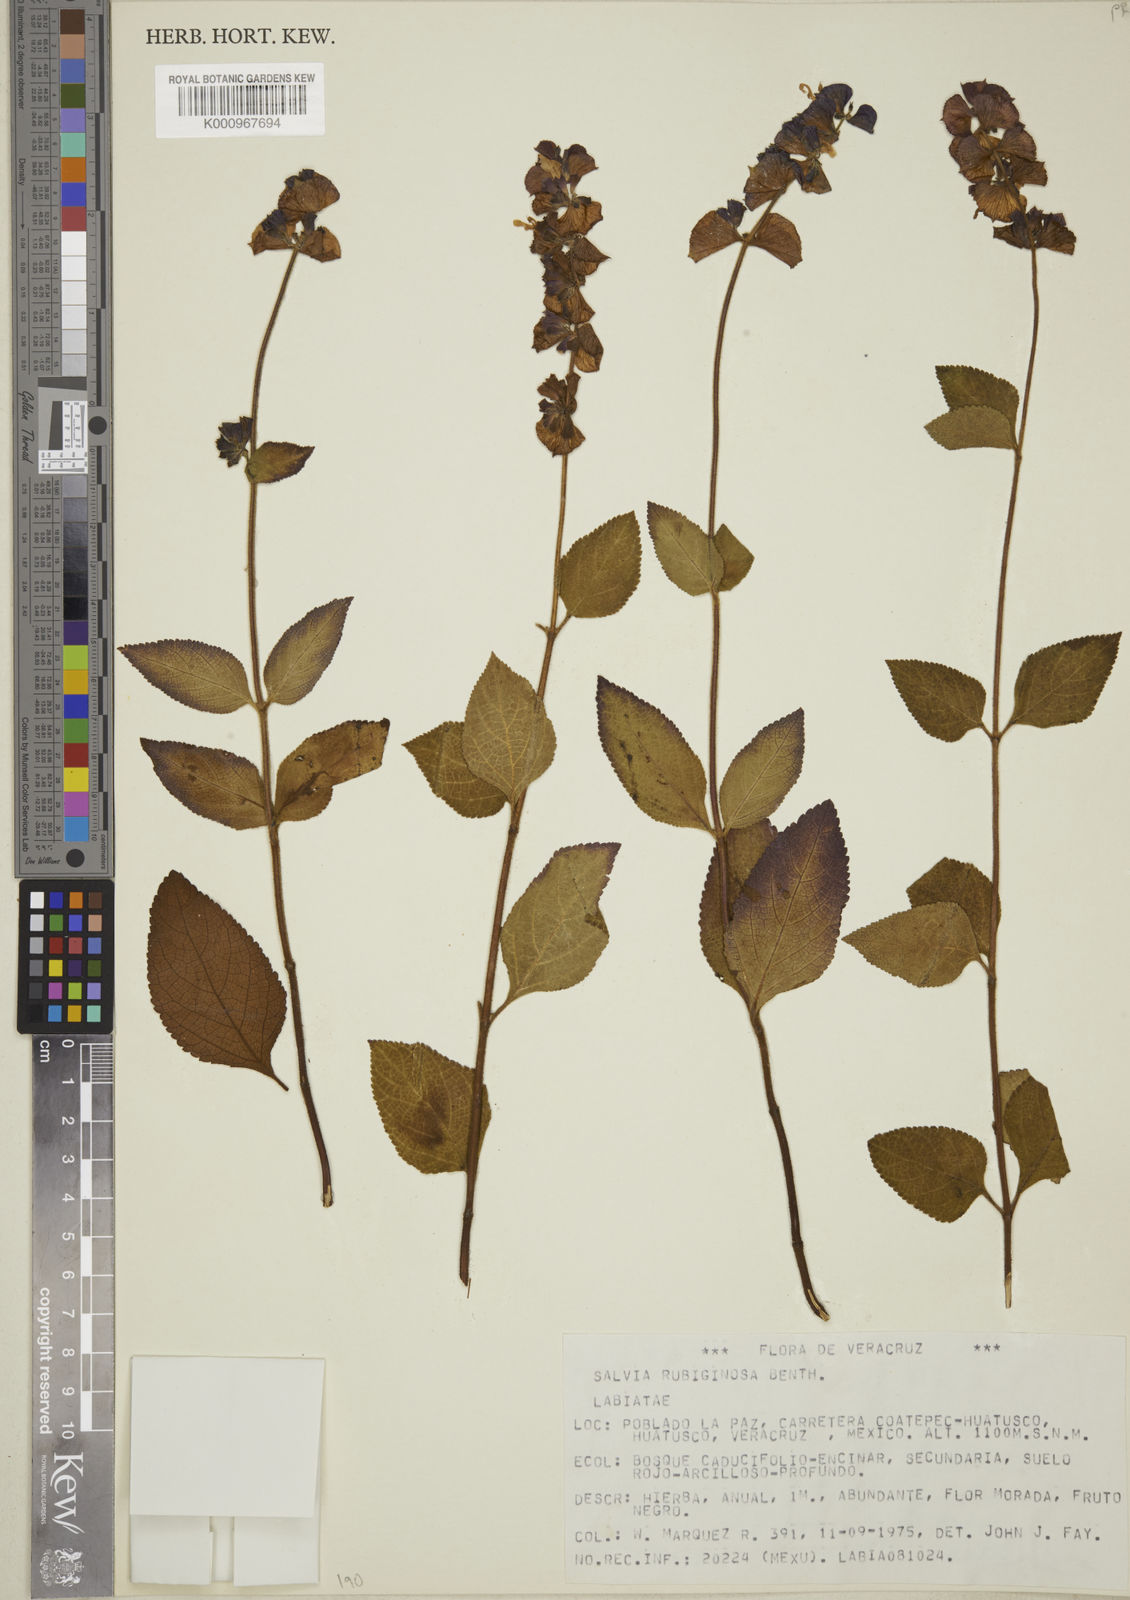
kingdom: Plantae
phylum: Tracheophyta
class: Magnoliopsida
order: Lamiales
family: Lamiaceae
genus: Salvia
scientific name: Salvia mocinoi
